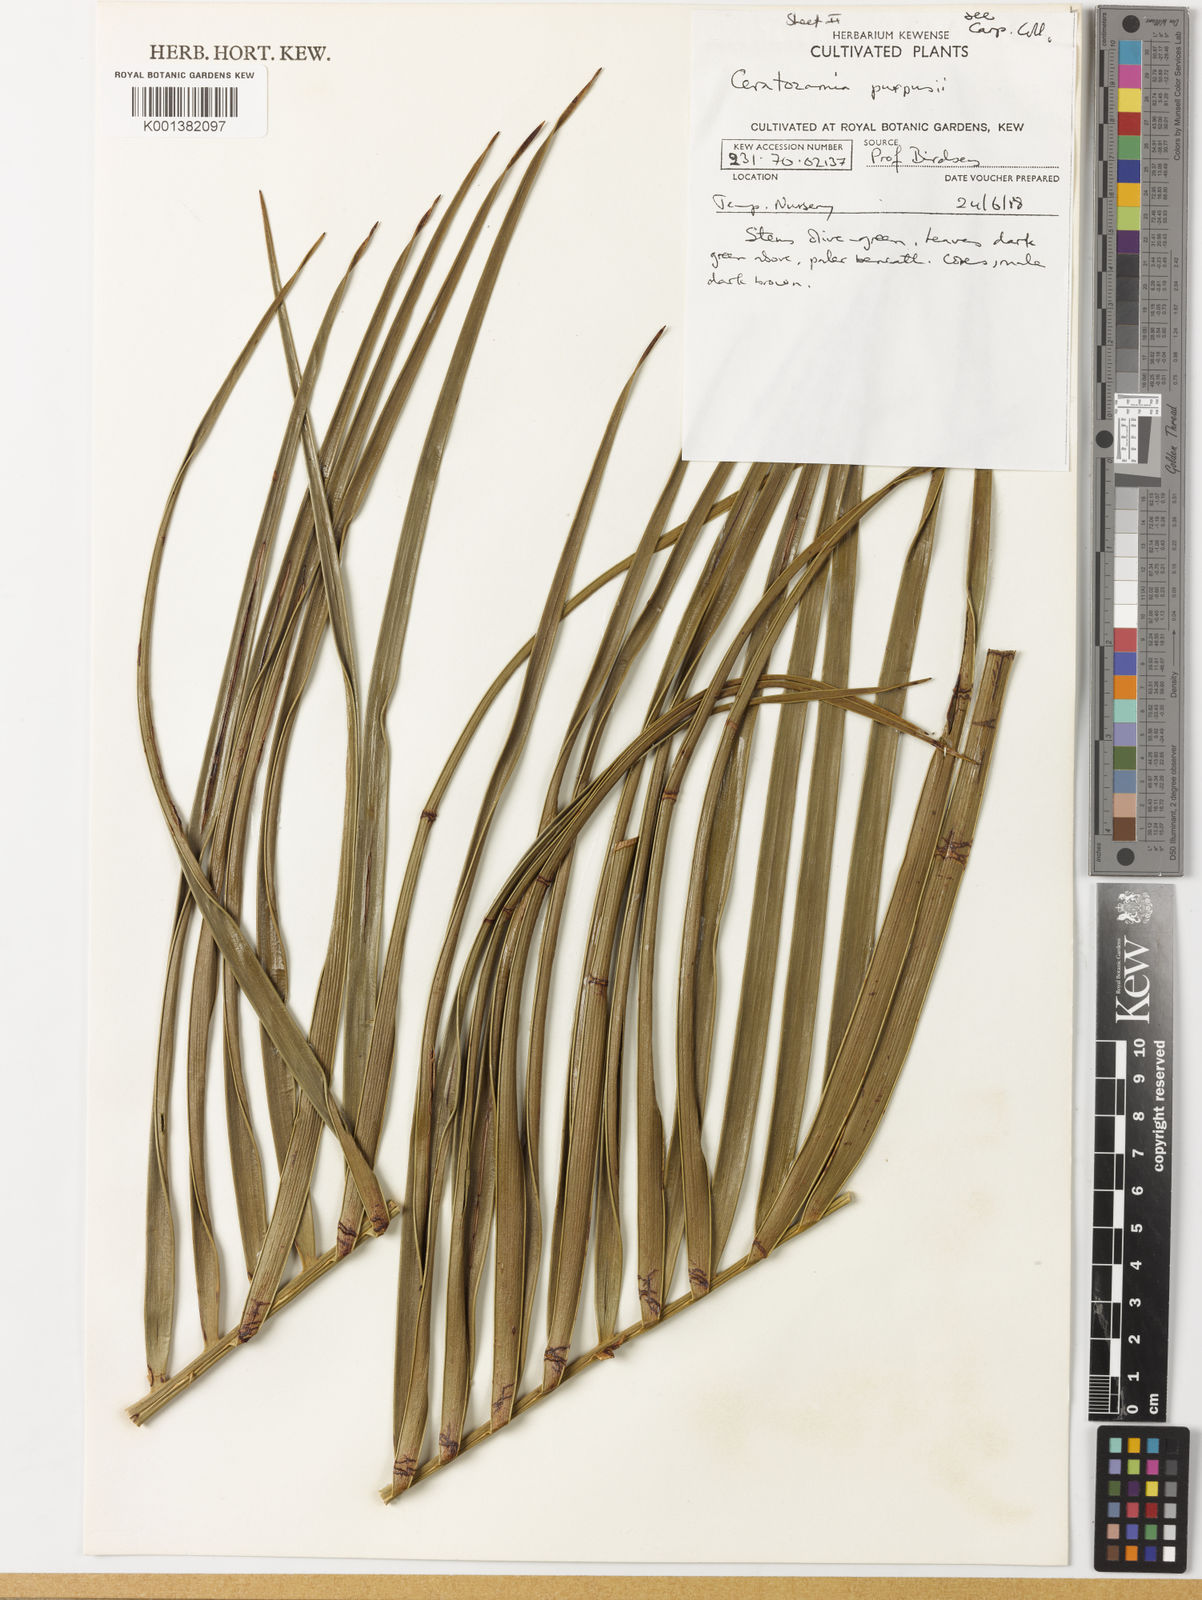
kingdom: Plantae
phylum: Tracheophyta
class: Cycadopsida
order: Cycadales
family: Zamiaceae
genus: Ceratozamia
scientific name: Ceratozamia
